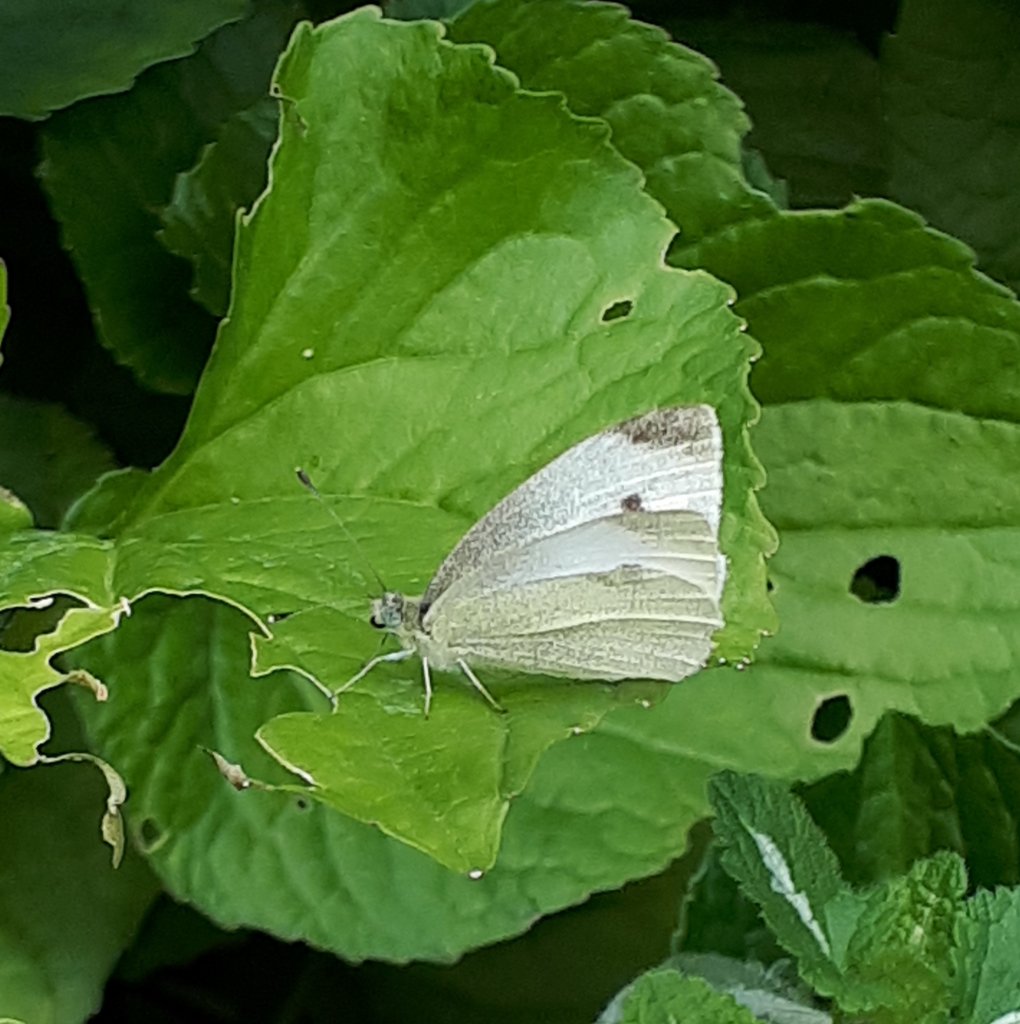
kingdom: Animalia
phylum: Arthropoda
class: Insecta
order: Lepidoptera
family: Pieridae
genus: Pieris
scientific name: Pieris rapae
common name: Cabbage White
